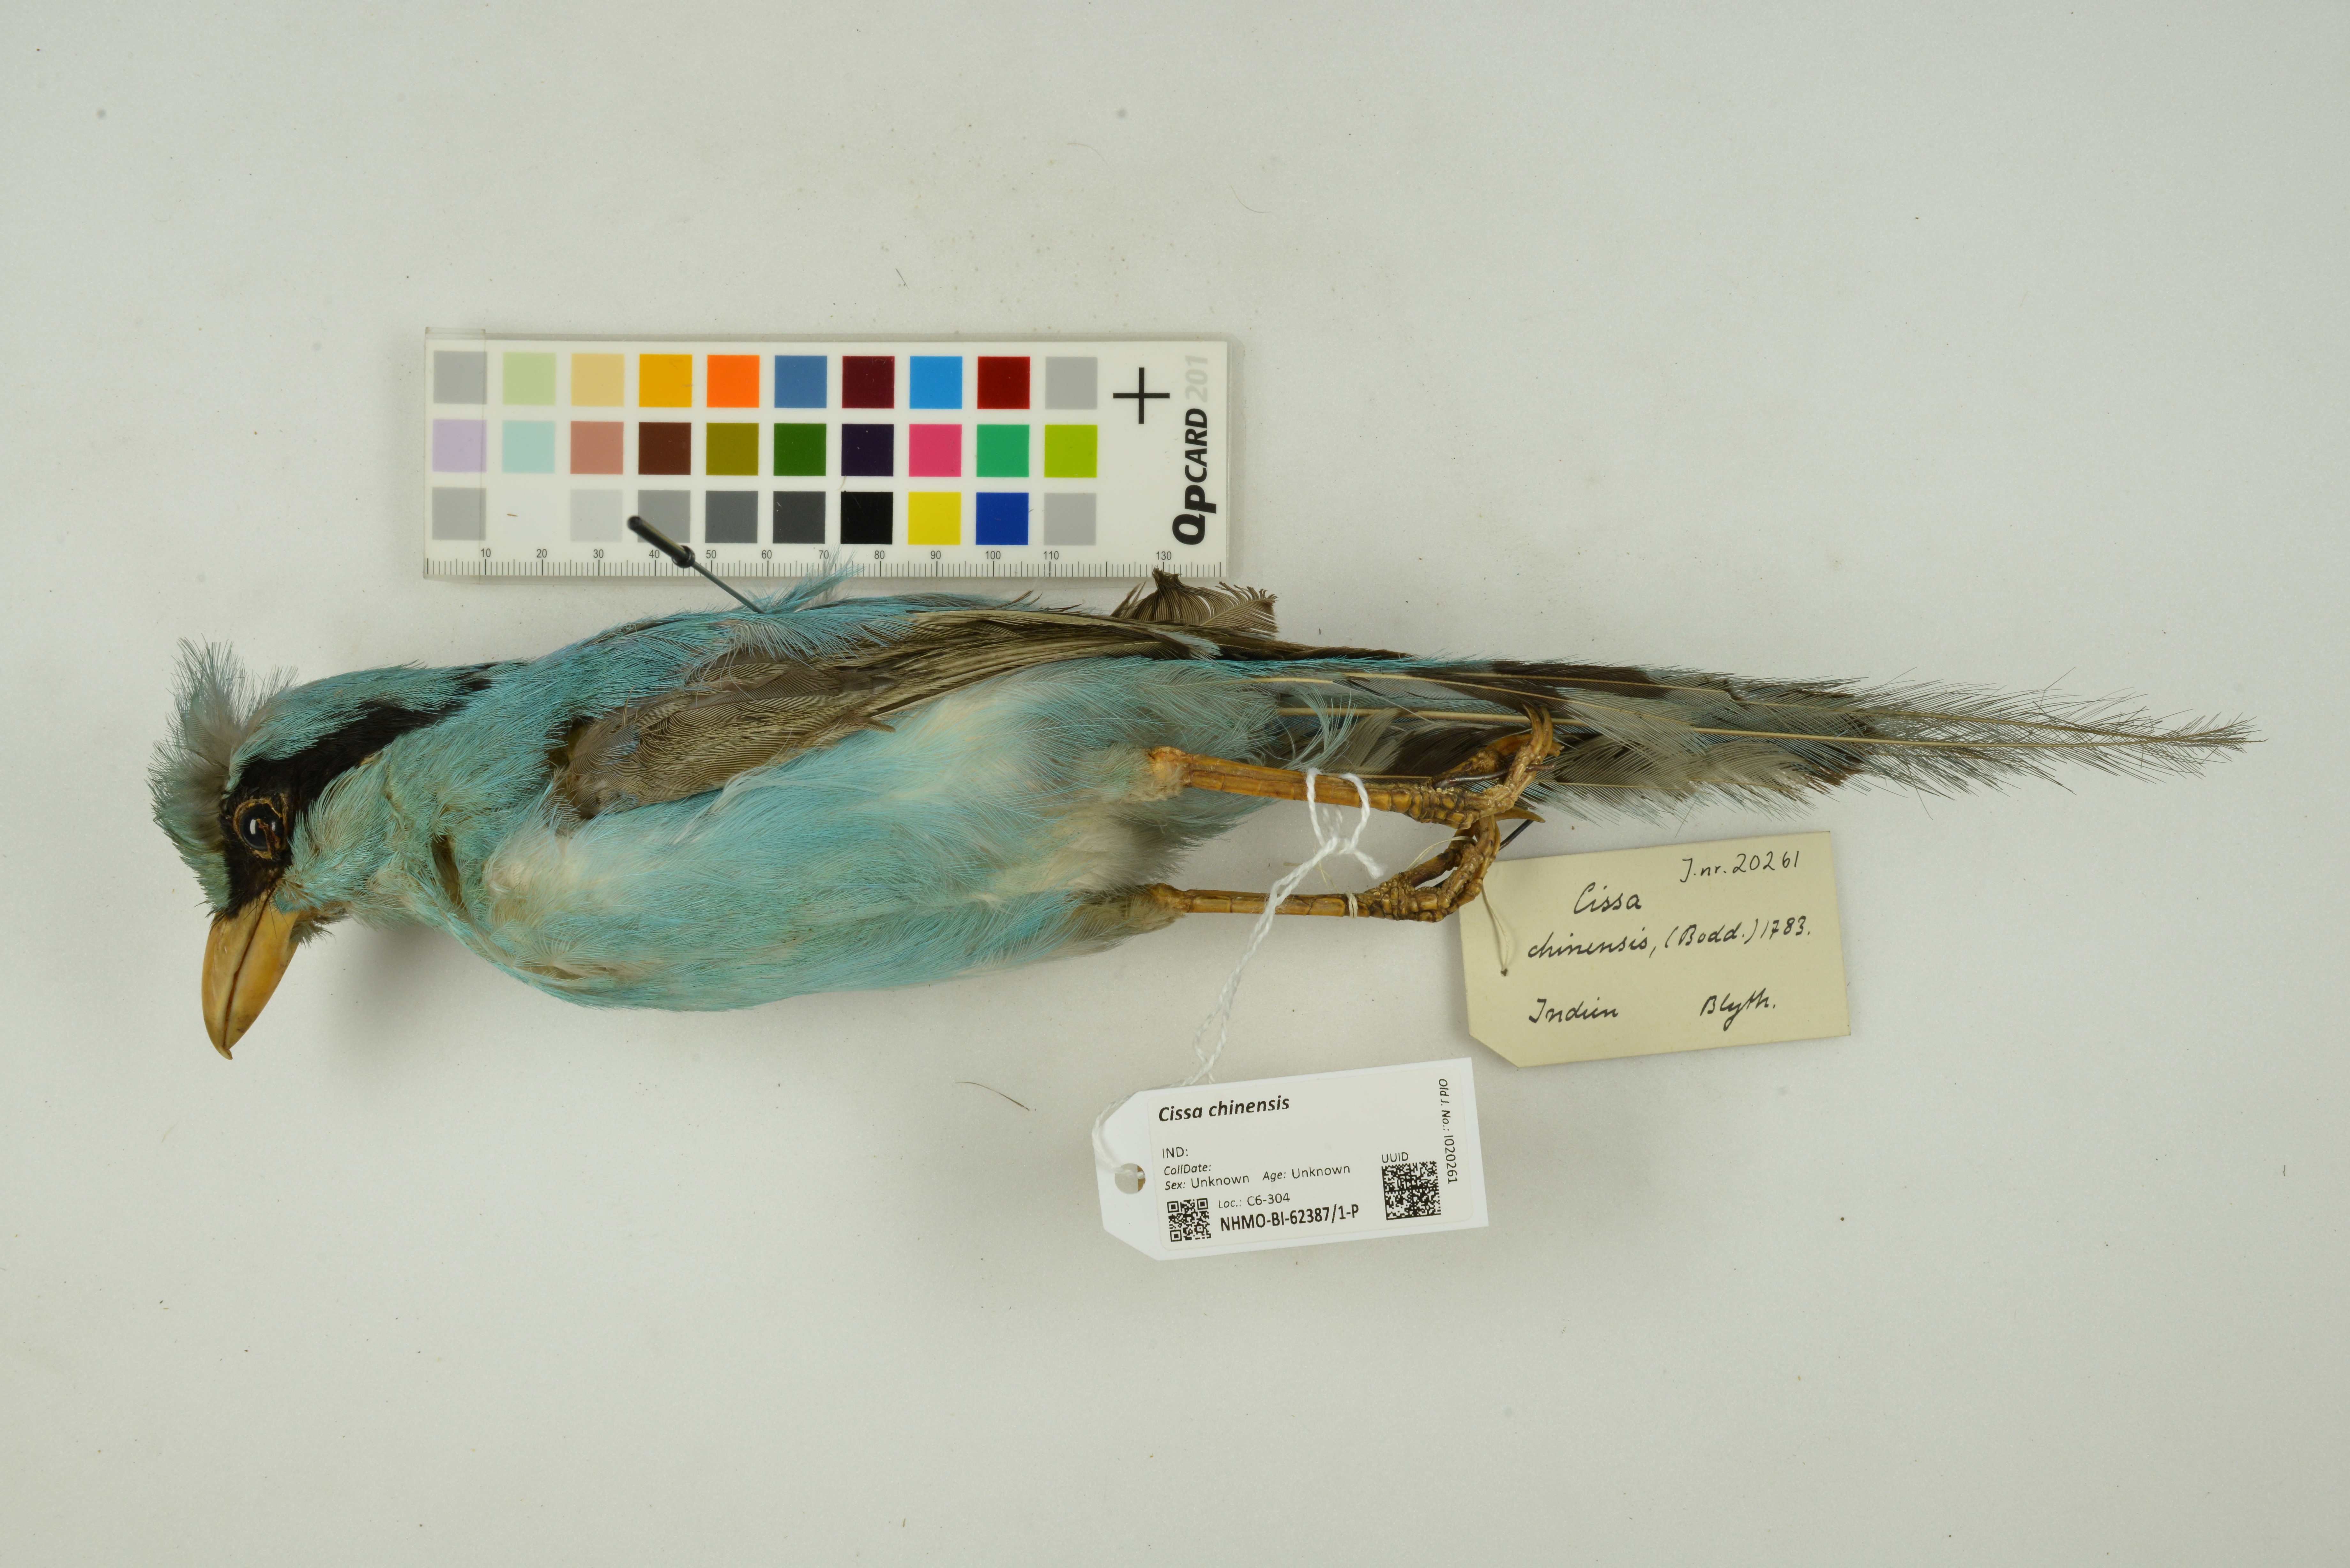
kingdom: Animalia
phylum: Chordata
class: Aves
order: Passeriformes
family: Corvidae
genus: Cissa
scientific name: Cissa chinensis
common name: Common green magpie
